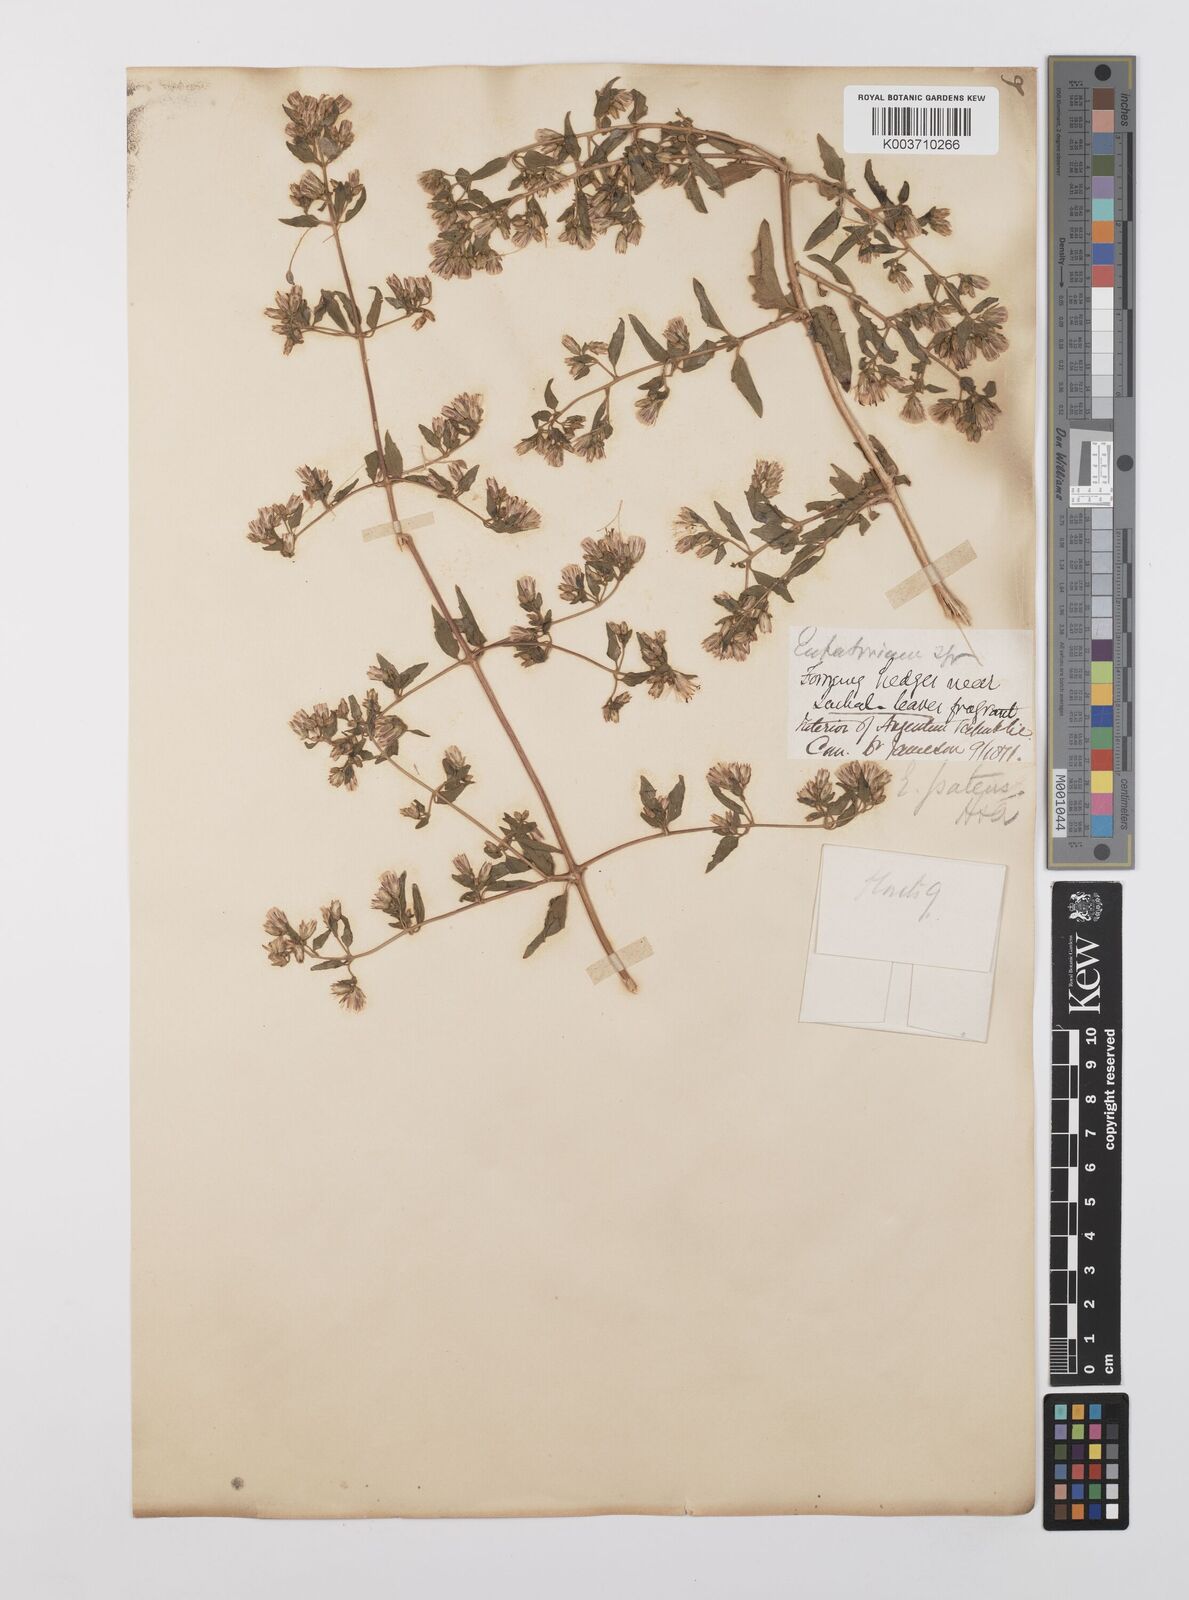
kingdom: Plantae
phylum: Tracheophyta
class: Magnoliopsida
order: Asterales
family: Asteraceae
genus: Austrobrickellia
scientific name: Austrobrickellia patens
